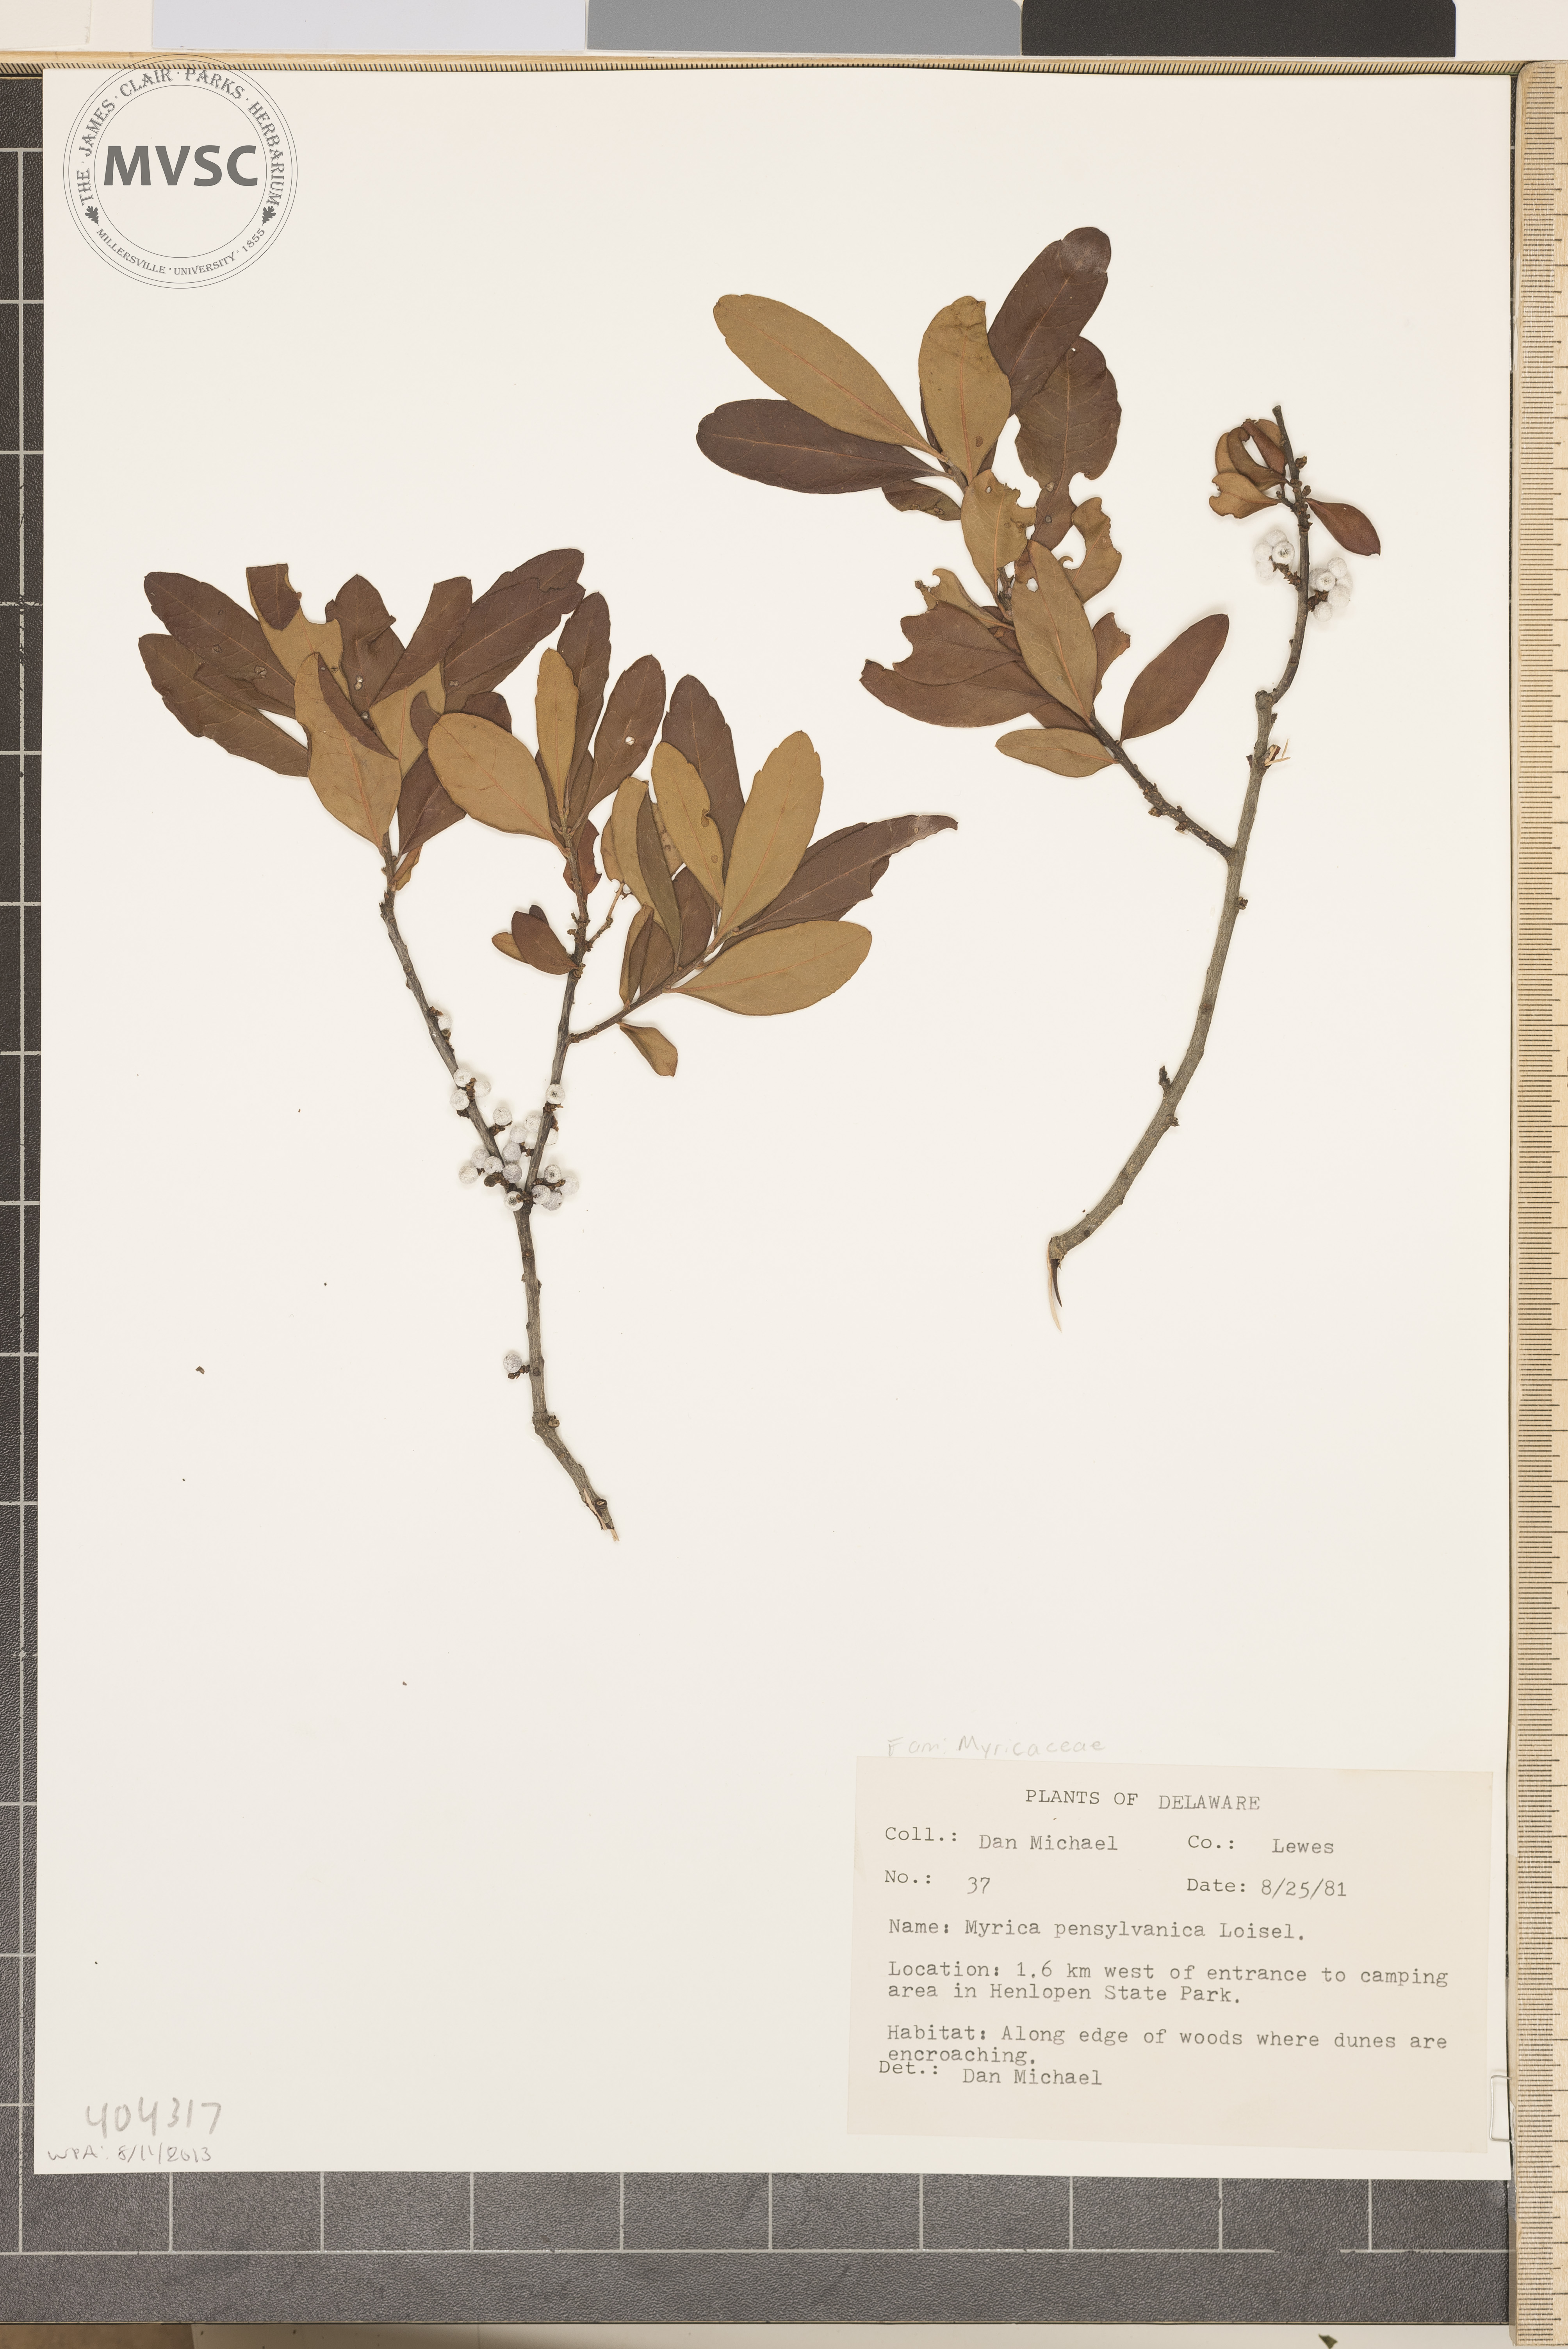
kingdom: Plantae
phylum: Tracheophyta
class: Magnoliopsida
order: Fagales
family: Myricaceae
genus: Morella
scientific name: Morella
